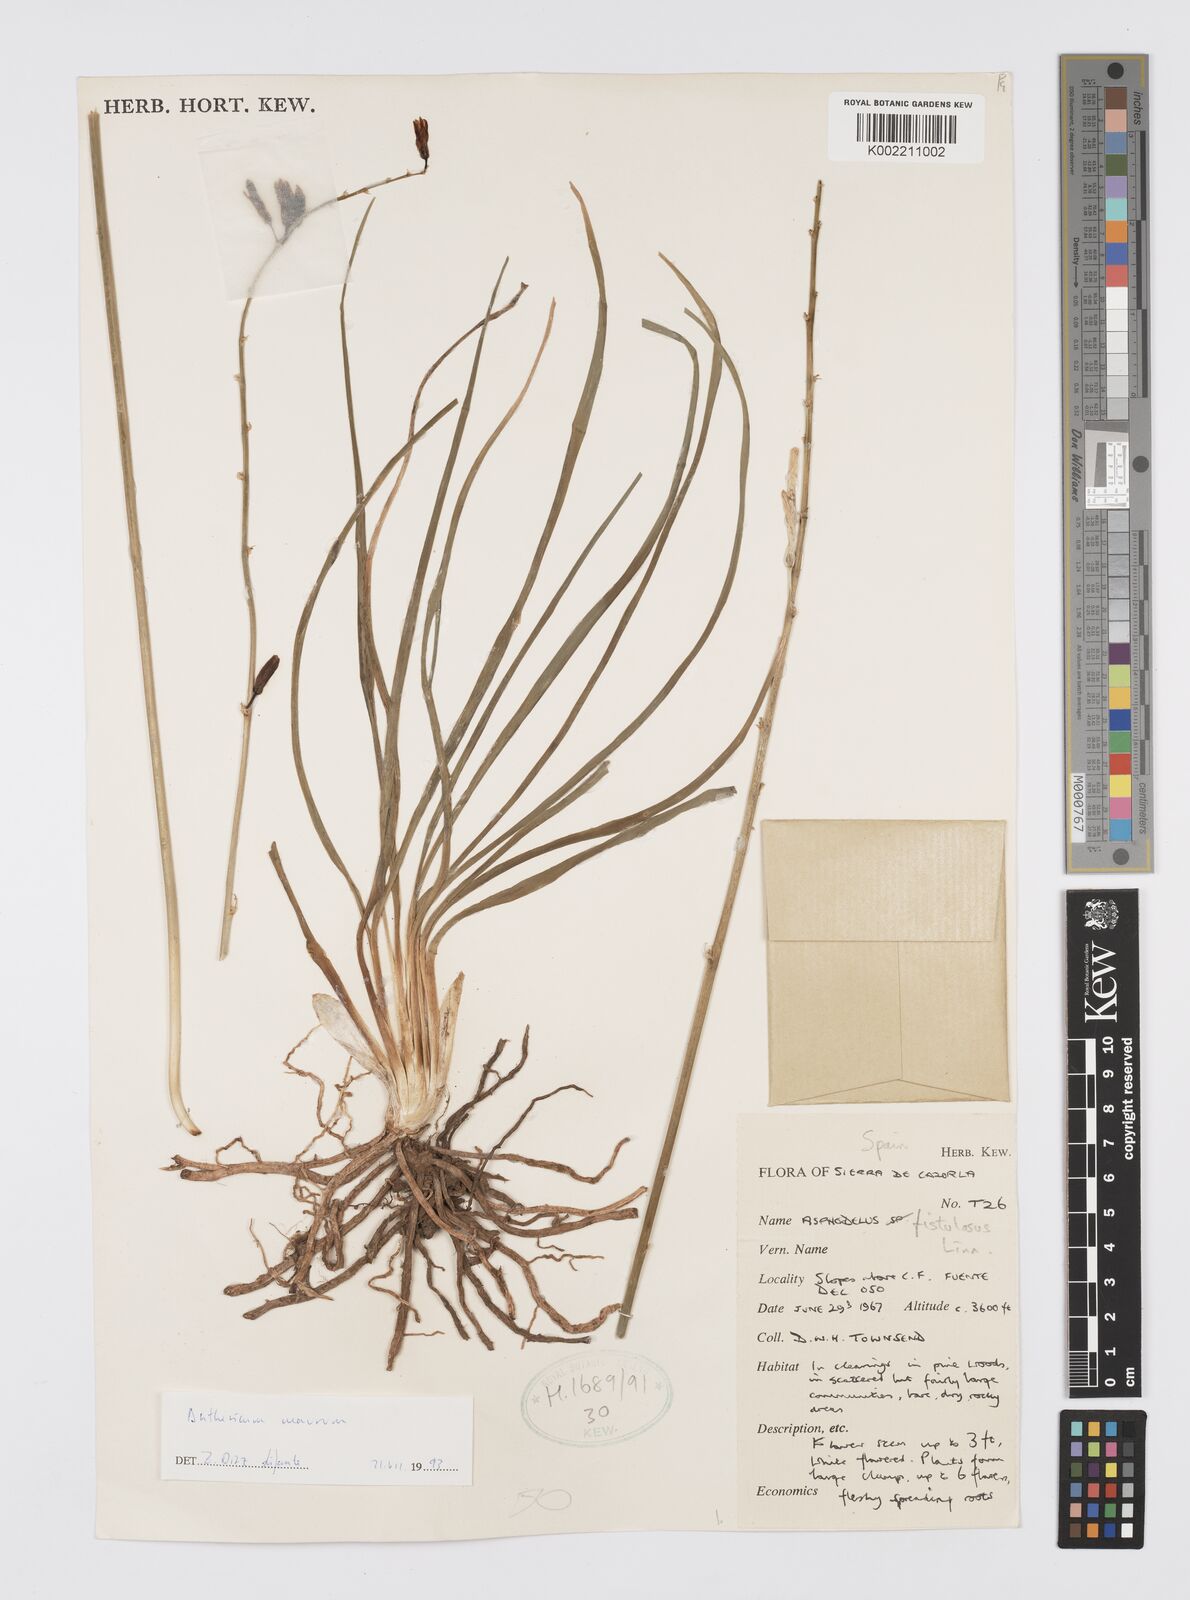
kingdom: Plantae
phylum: Tracheophyta
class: Liliopsida
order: Asparagales
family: Asphodelaceae
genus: Asphodelus
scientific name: Asphodelus fistulosus
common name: Onionweed
